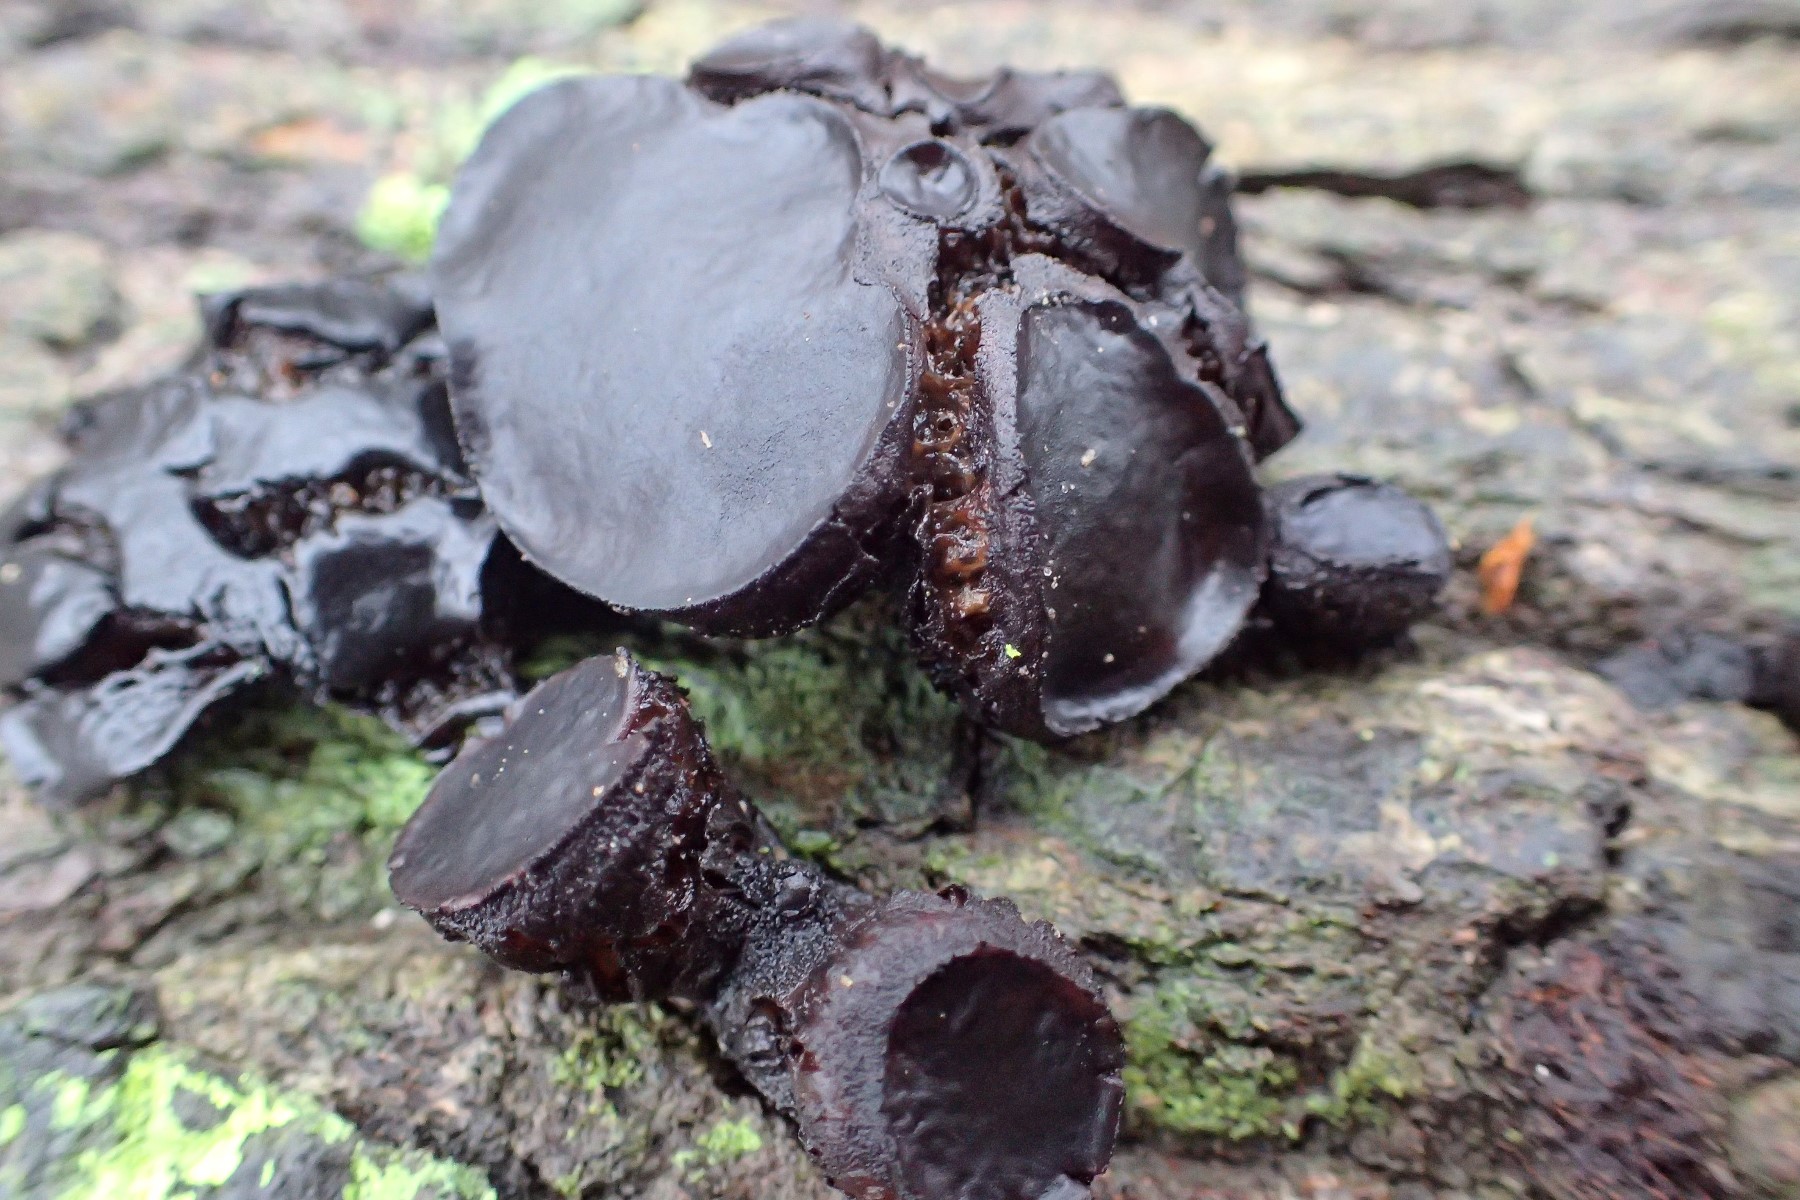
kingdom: Fungi
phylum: Ascomycota
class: Leotiomycetes
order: Phacidiales
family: Phacidiaceae
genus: Bulgaria
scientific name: Bulgaria inquinans
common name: afsmittende topsvamp
